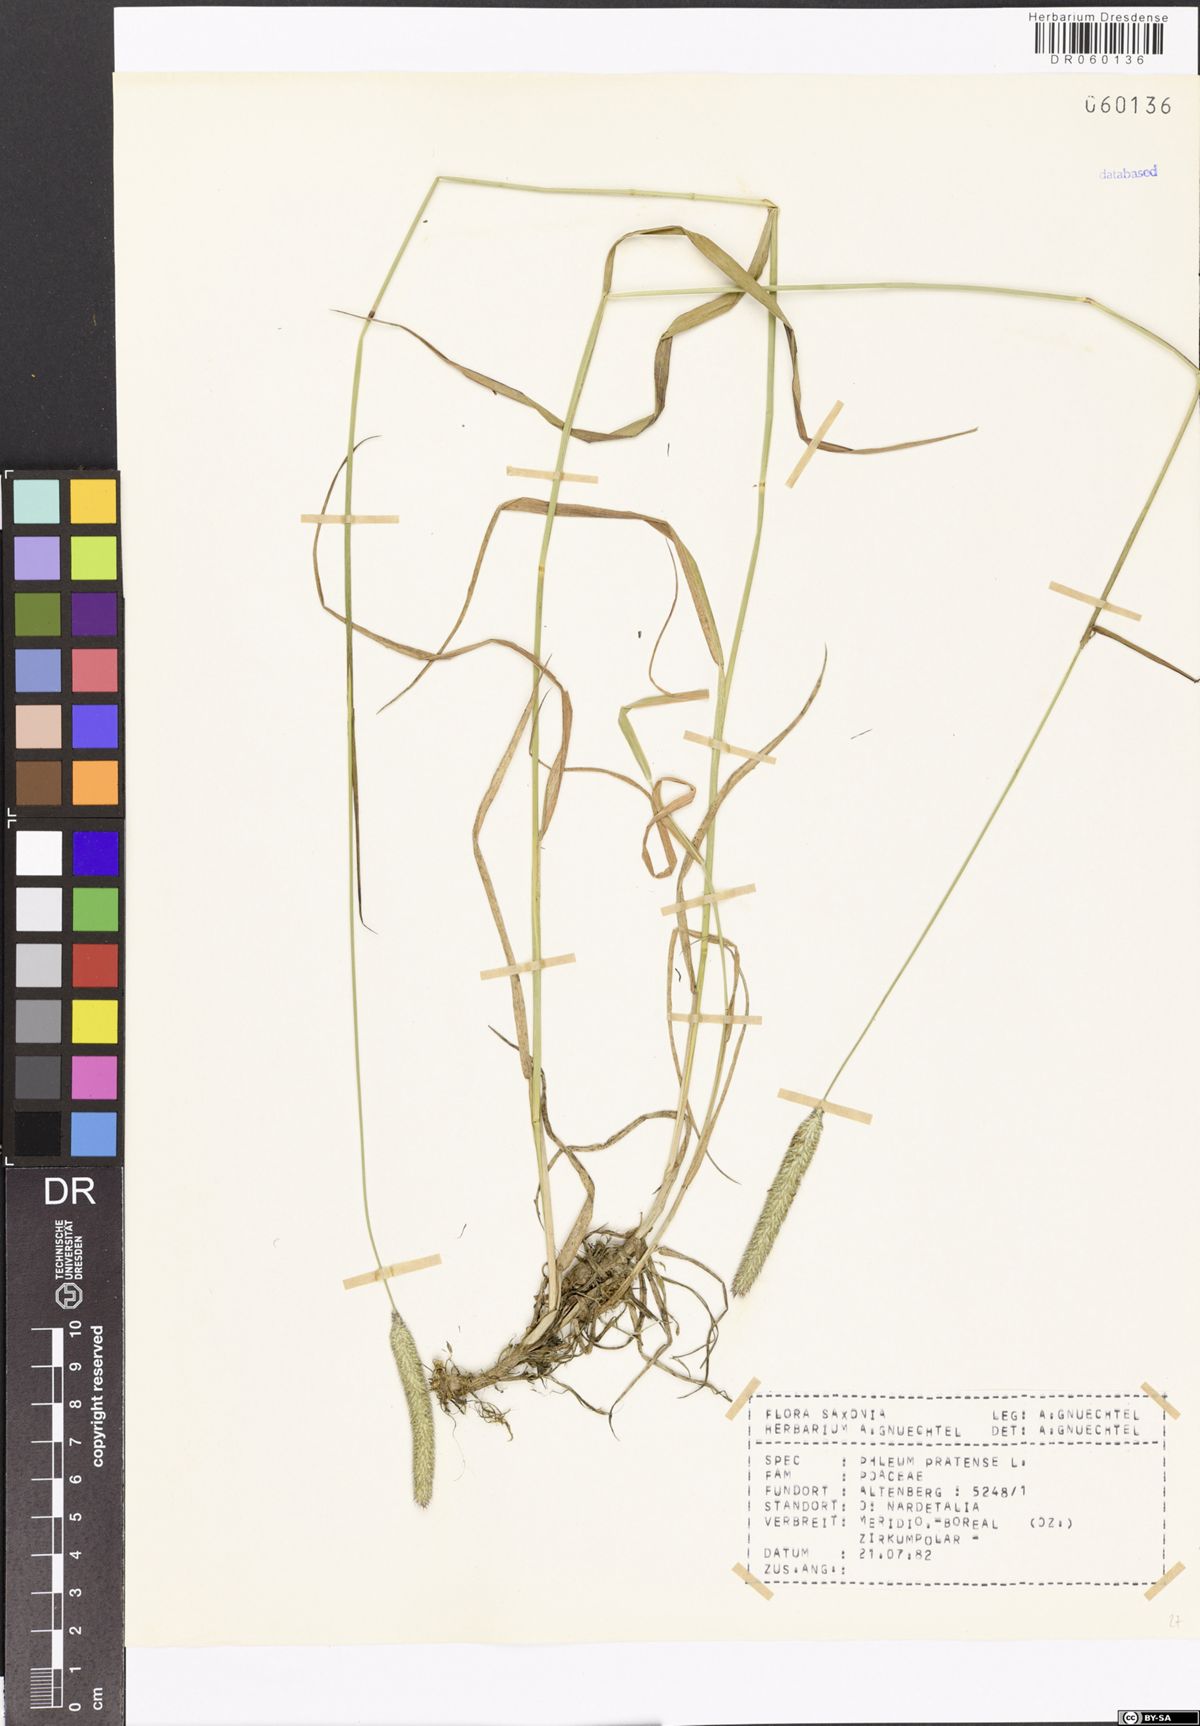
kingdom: Plantae
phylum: Tracheophyta
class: Liliopsida
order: Poales
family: Poaceae
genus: Phleum
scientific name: Phleum pratense
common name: Timothy grass
